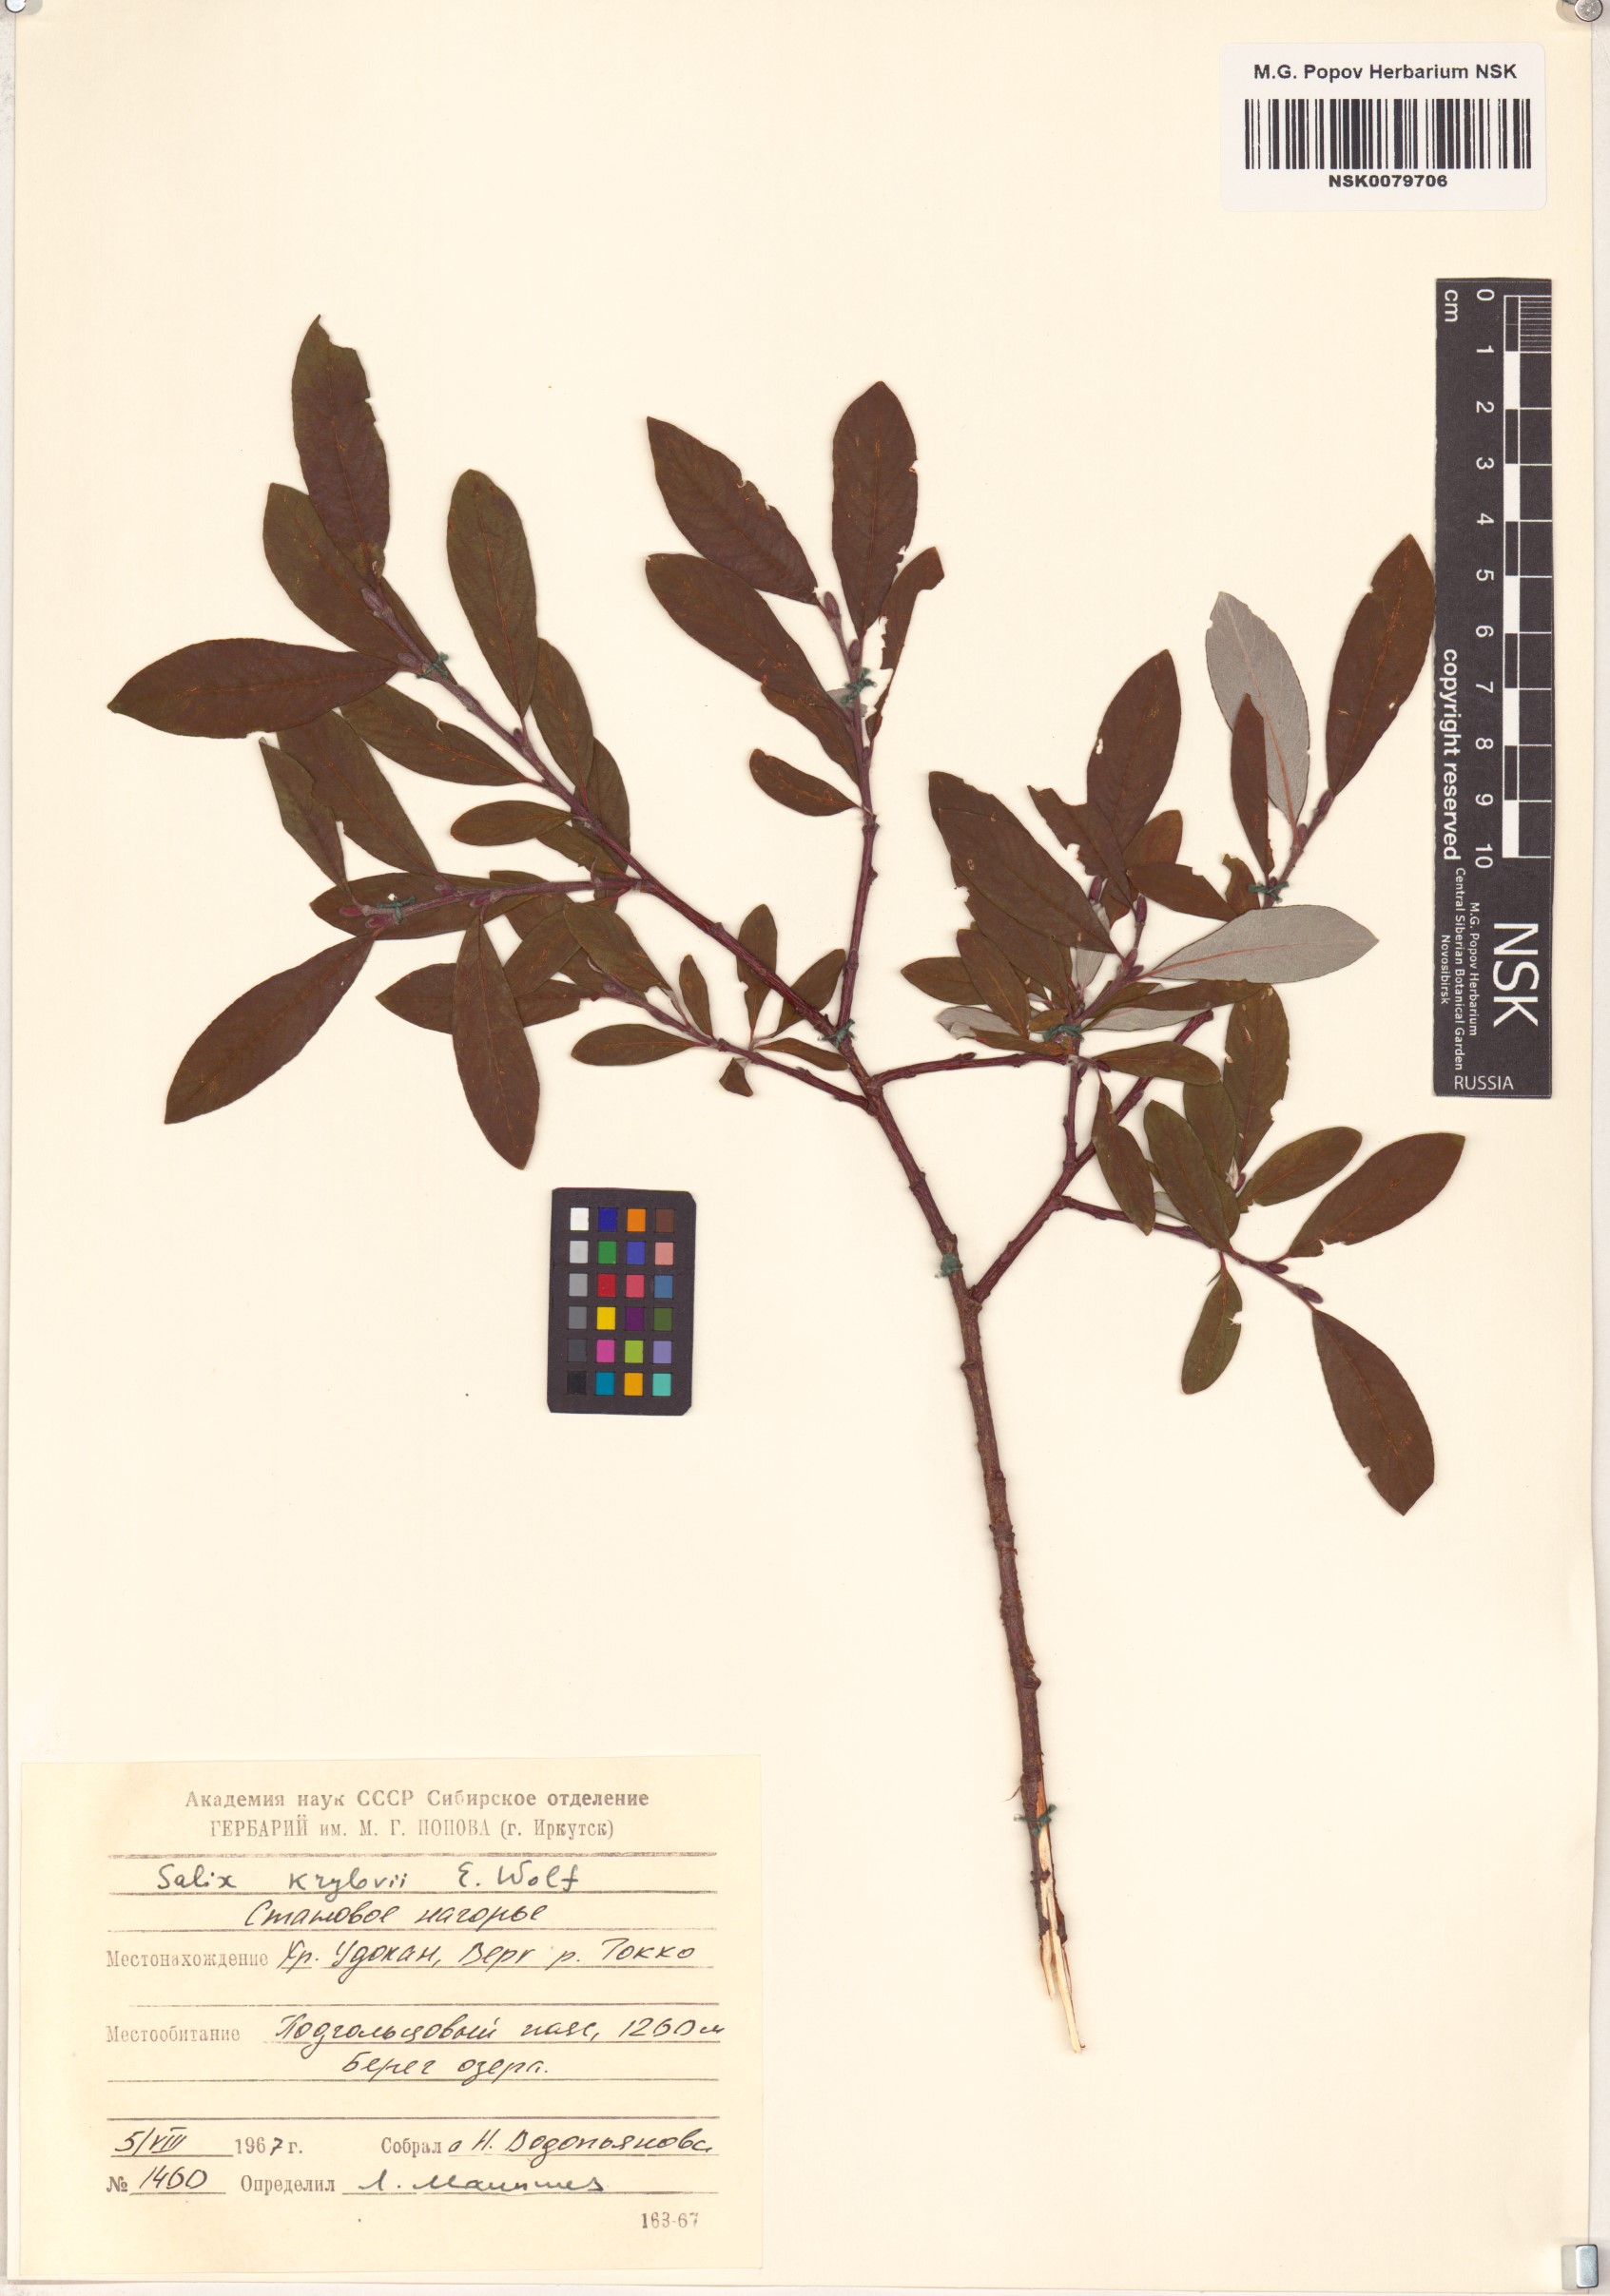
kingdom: Plantae
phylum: Tracheophyta
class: Magnoliopsida
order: Malpighiales
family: Salicaceae
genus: Salix
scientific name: Salix krylovii
